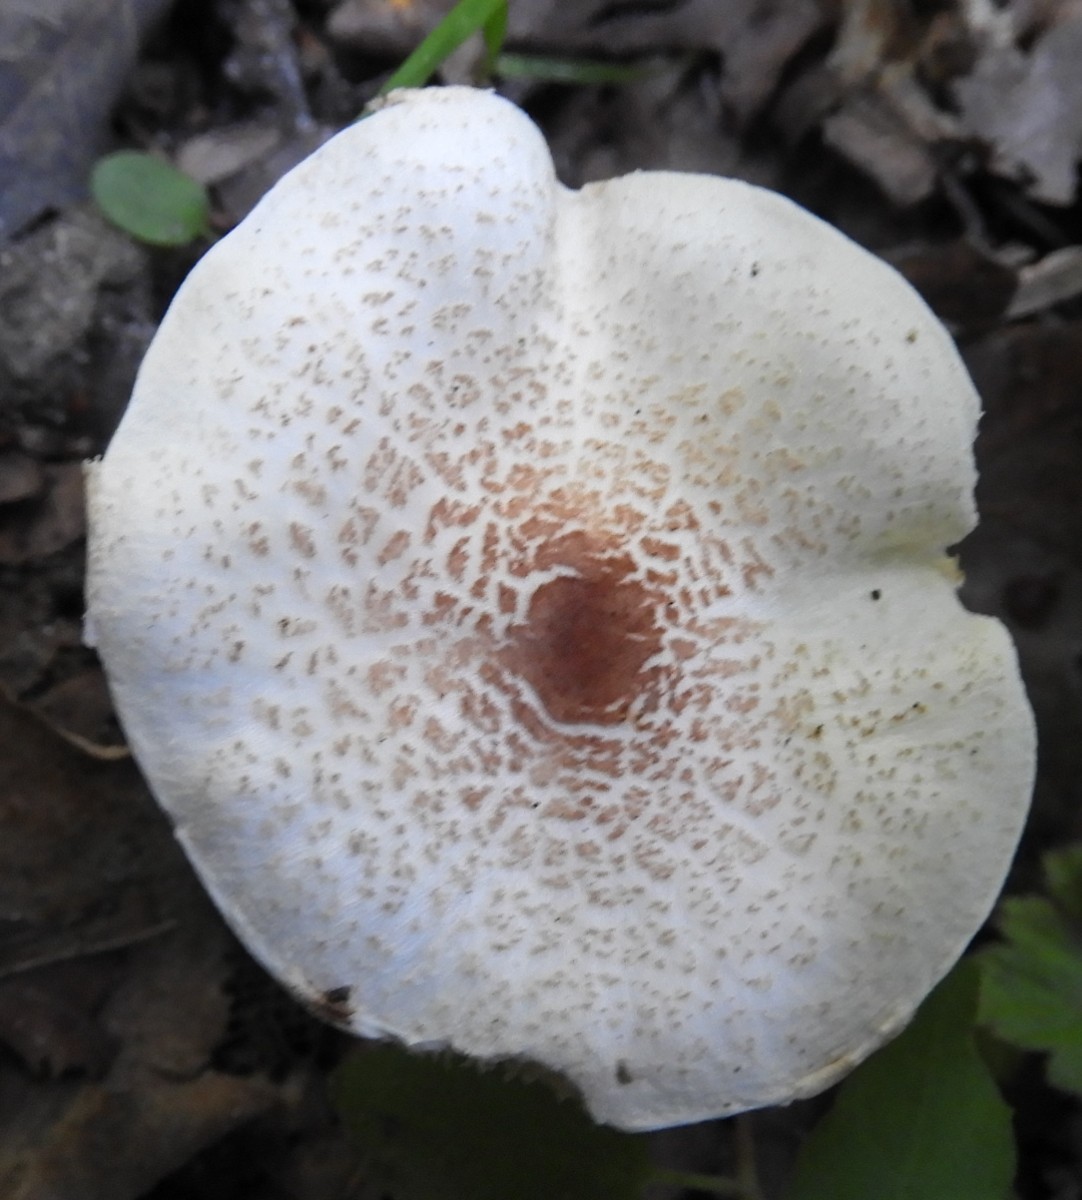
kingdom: Fungi
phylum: Basidiomycota
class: Agaricomycetes
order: Agaricales
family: Agaricaceae
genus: Lepiota
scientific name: Lepiota cristata
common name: stinkende parasolhat
